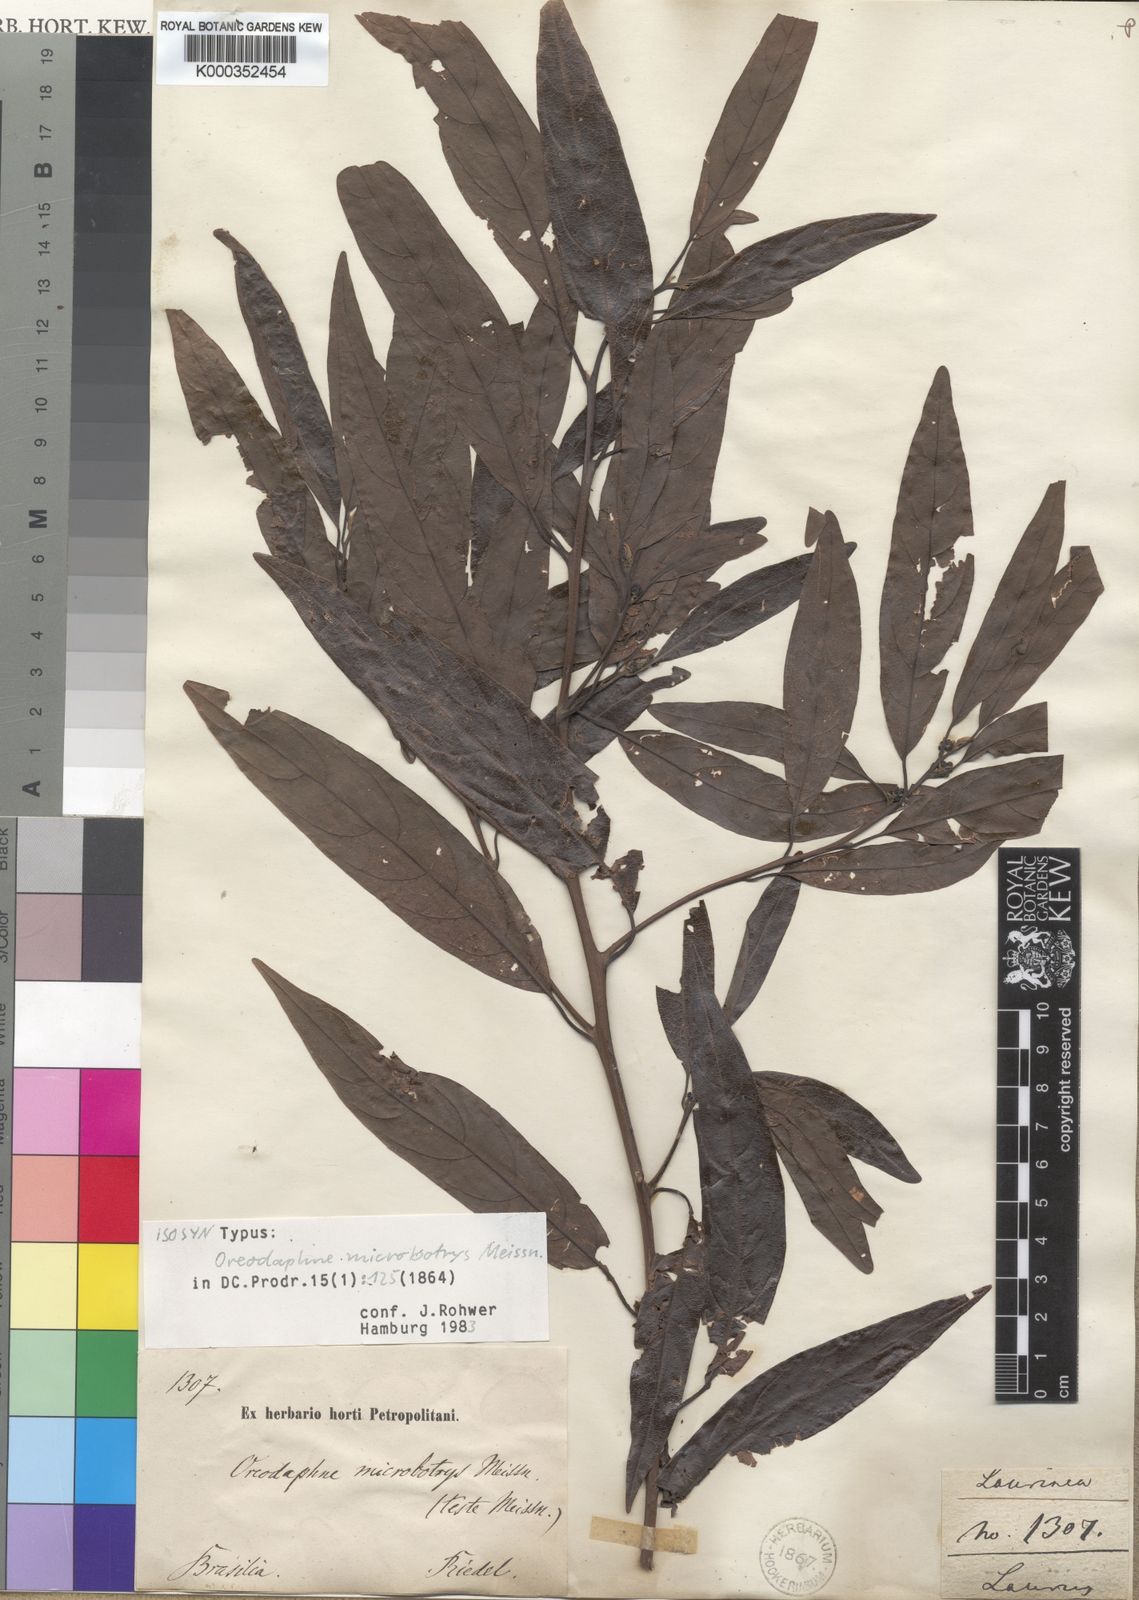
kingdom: Plantae
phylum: Tracheophyta
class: Magnoliopsida
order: Laurales
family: Lauraceae
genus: Ocotea
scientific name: Ocotea microbotrys
